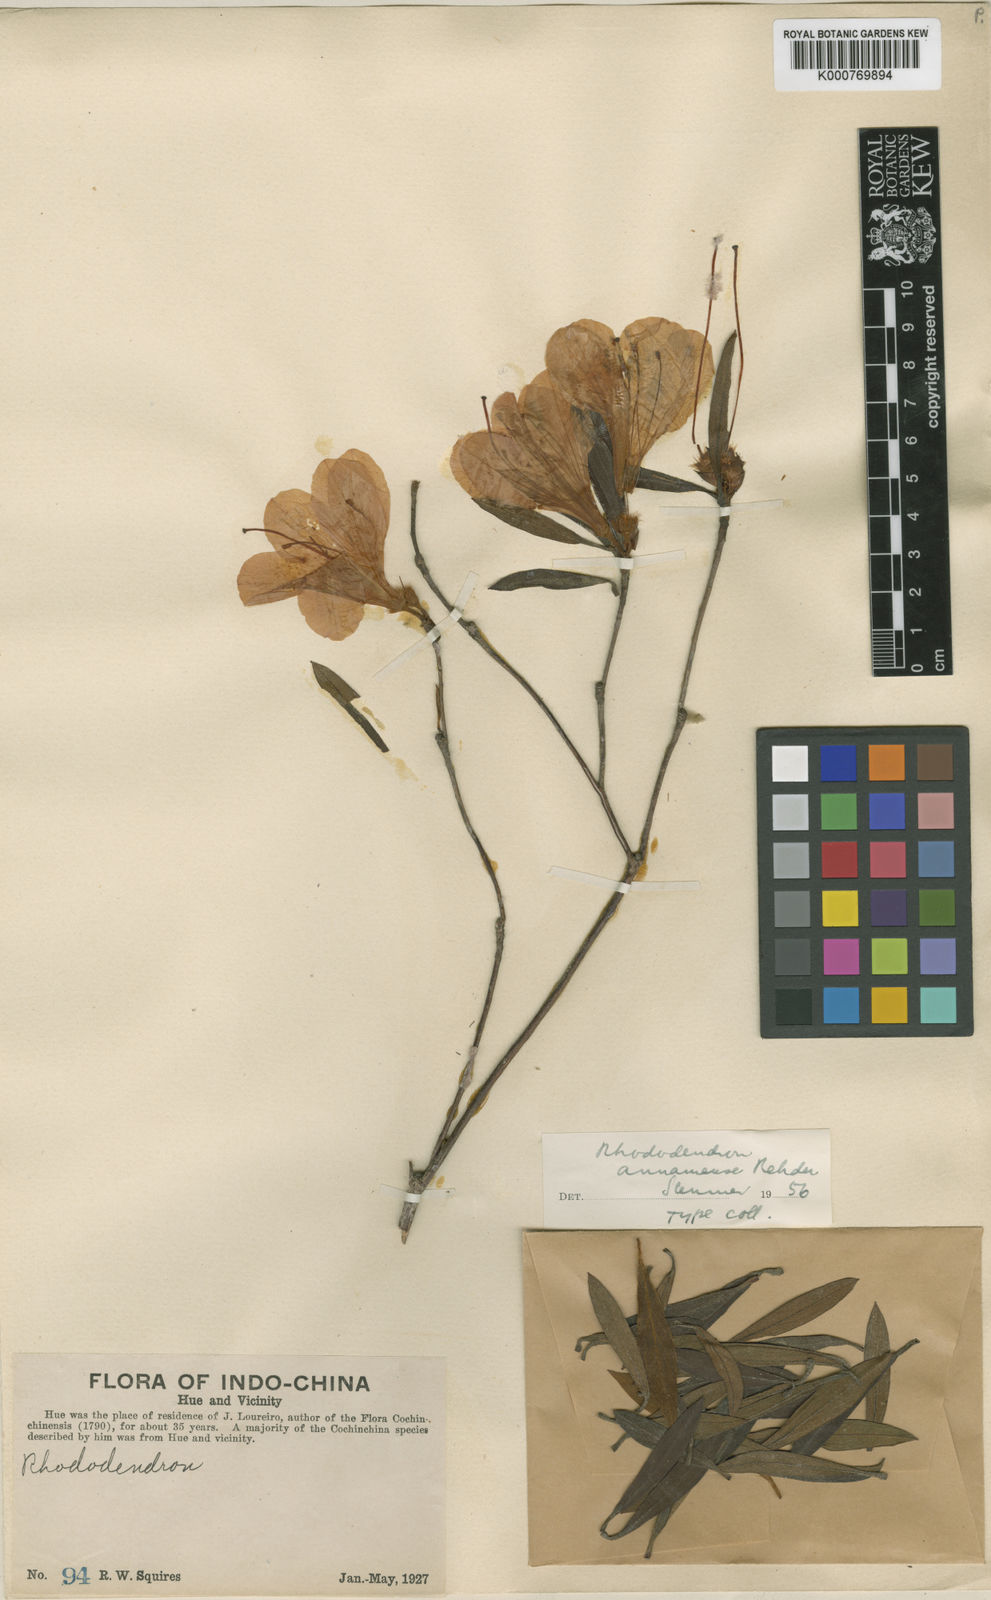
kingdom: Plantae
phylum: Tracheophyta
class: Magnoliopsida
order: Ericales
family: Ericaceae
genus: Rhododendron
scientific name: Rhododendron simsii
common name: Rhododendron
